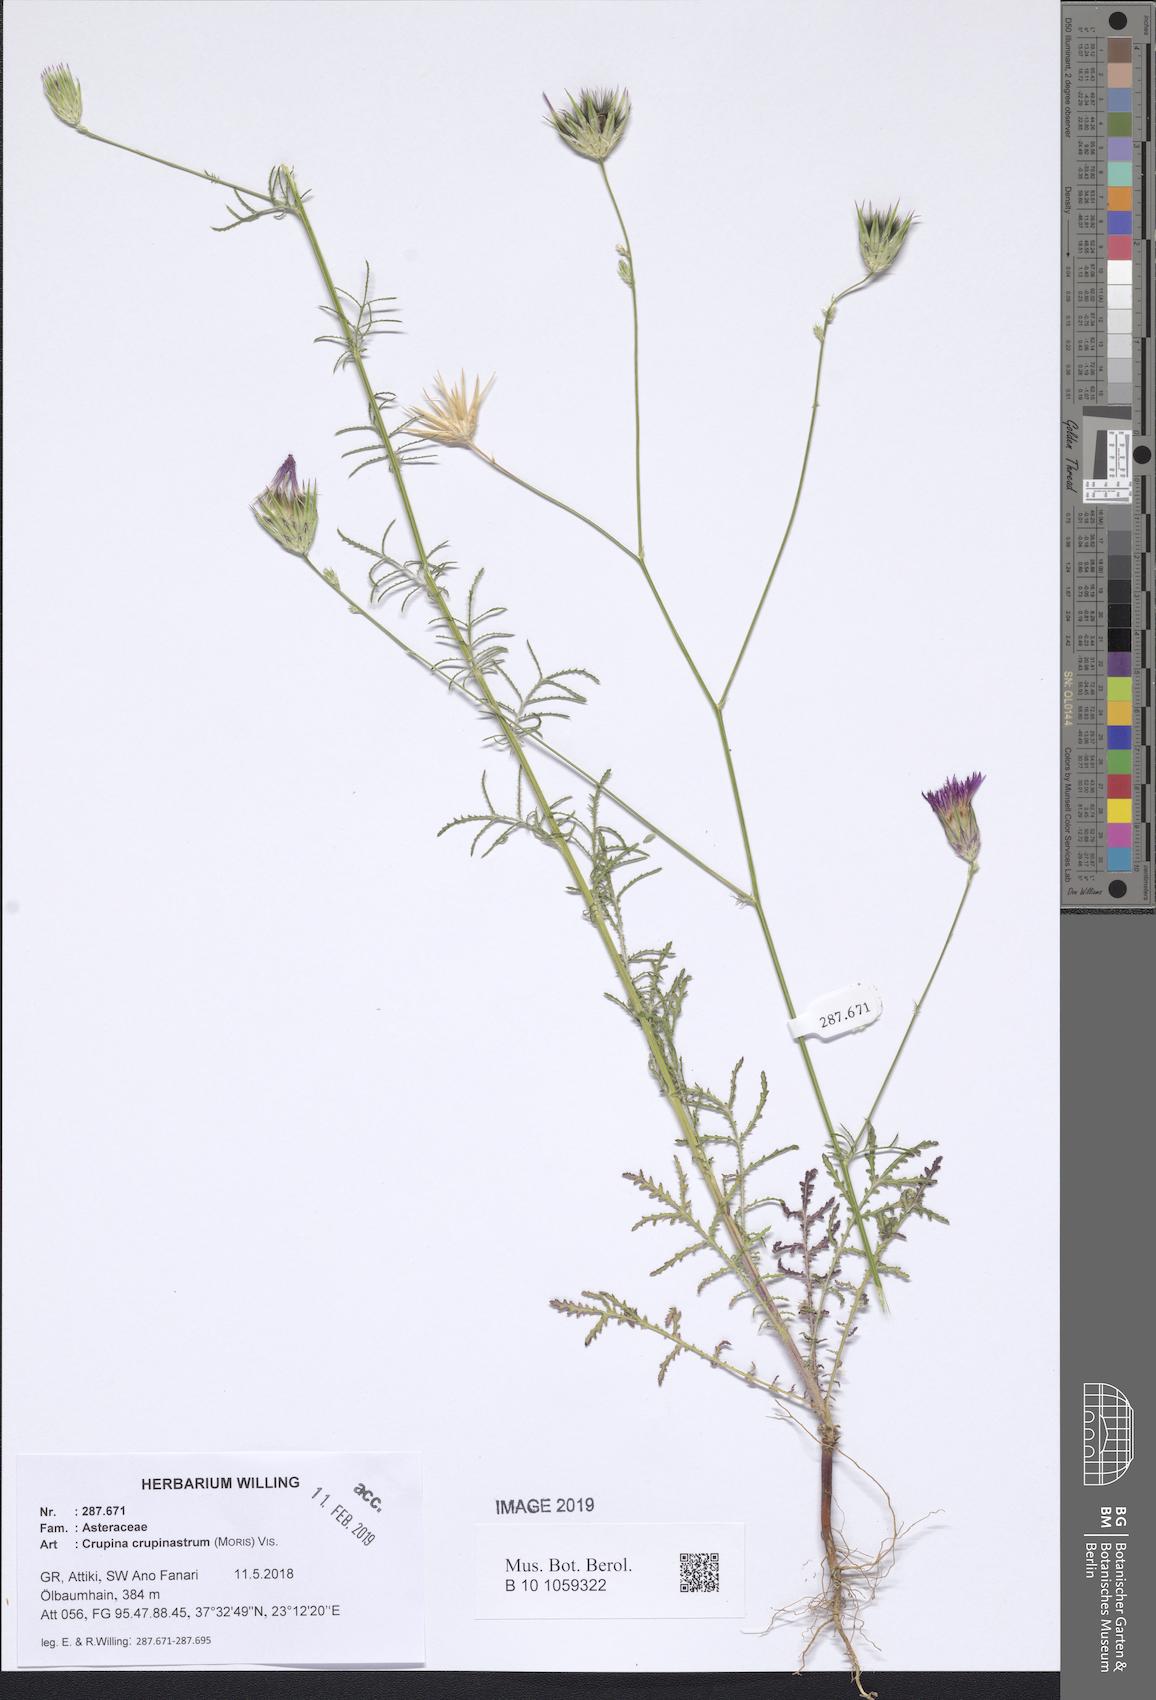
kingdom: Plantae
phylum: Tracheophyta
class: Magnoliopsida
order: Asterales
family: Asteraceae
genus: Crupina
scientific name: Crupina crupinastrum
